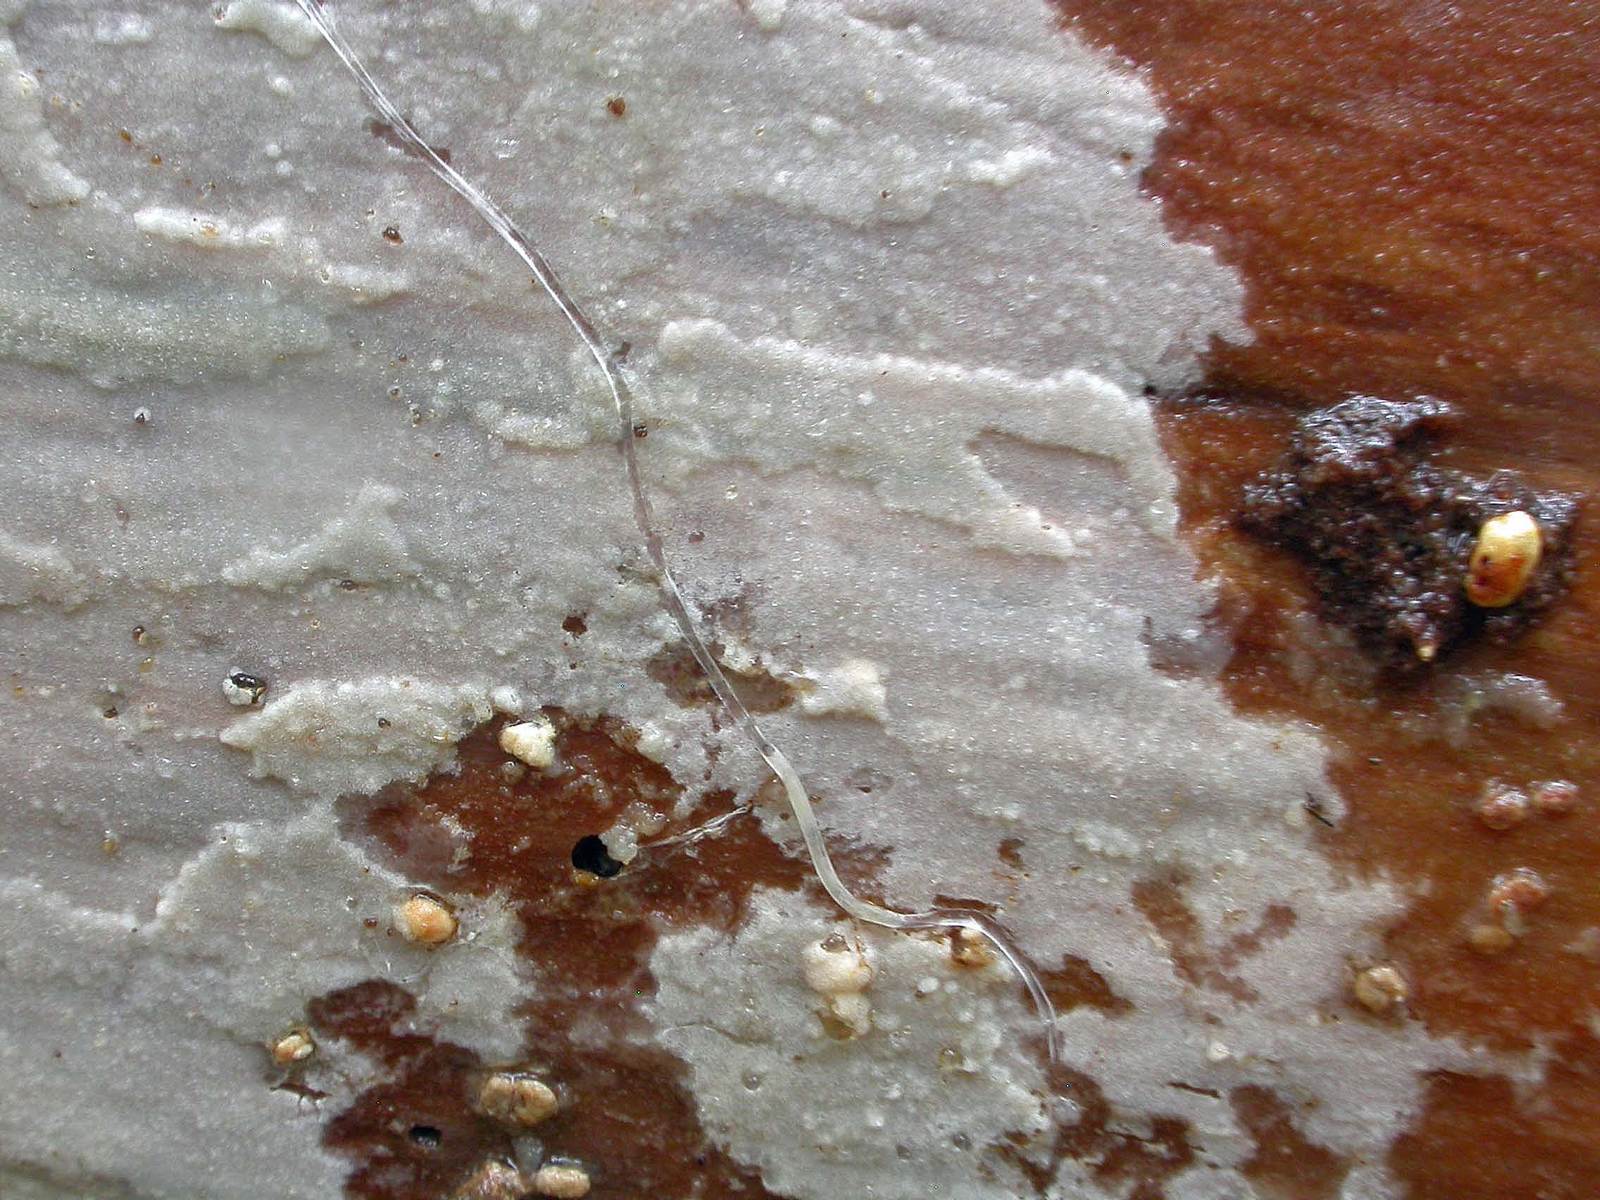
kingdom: Fungi
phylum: Basidiomycota
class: Agaricomycetes
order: Polyporales
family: Hyphodermataceae
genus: Hyphoderma
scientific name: Hyphoderma setigerum
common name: håret kalkskind
